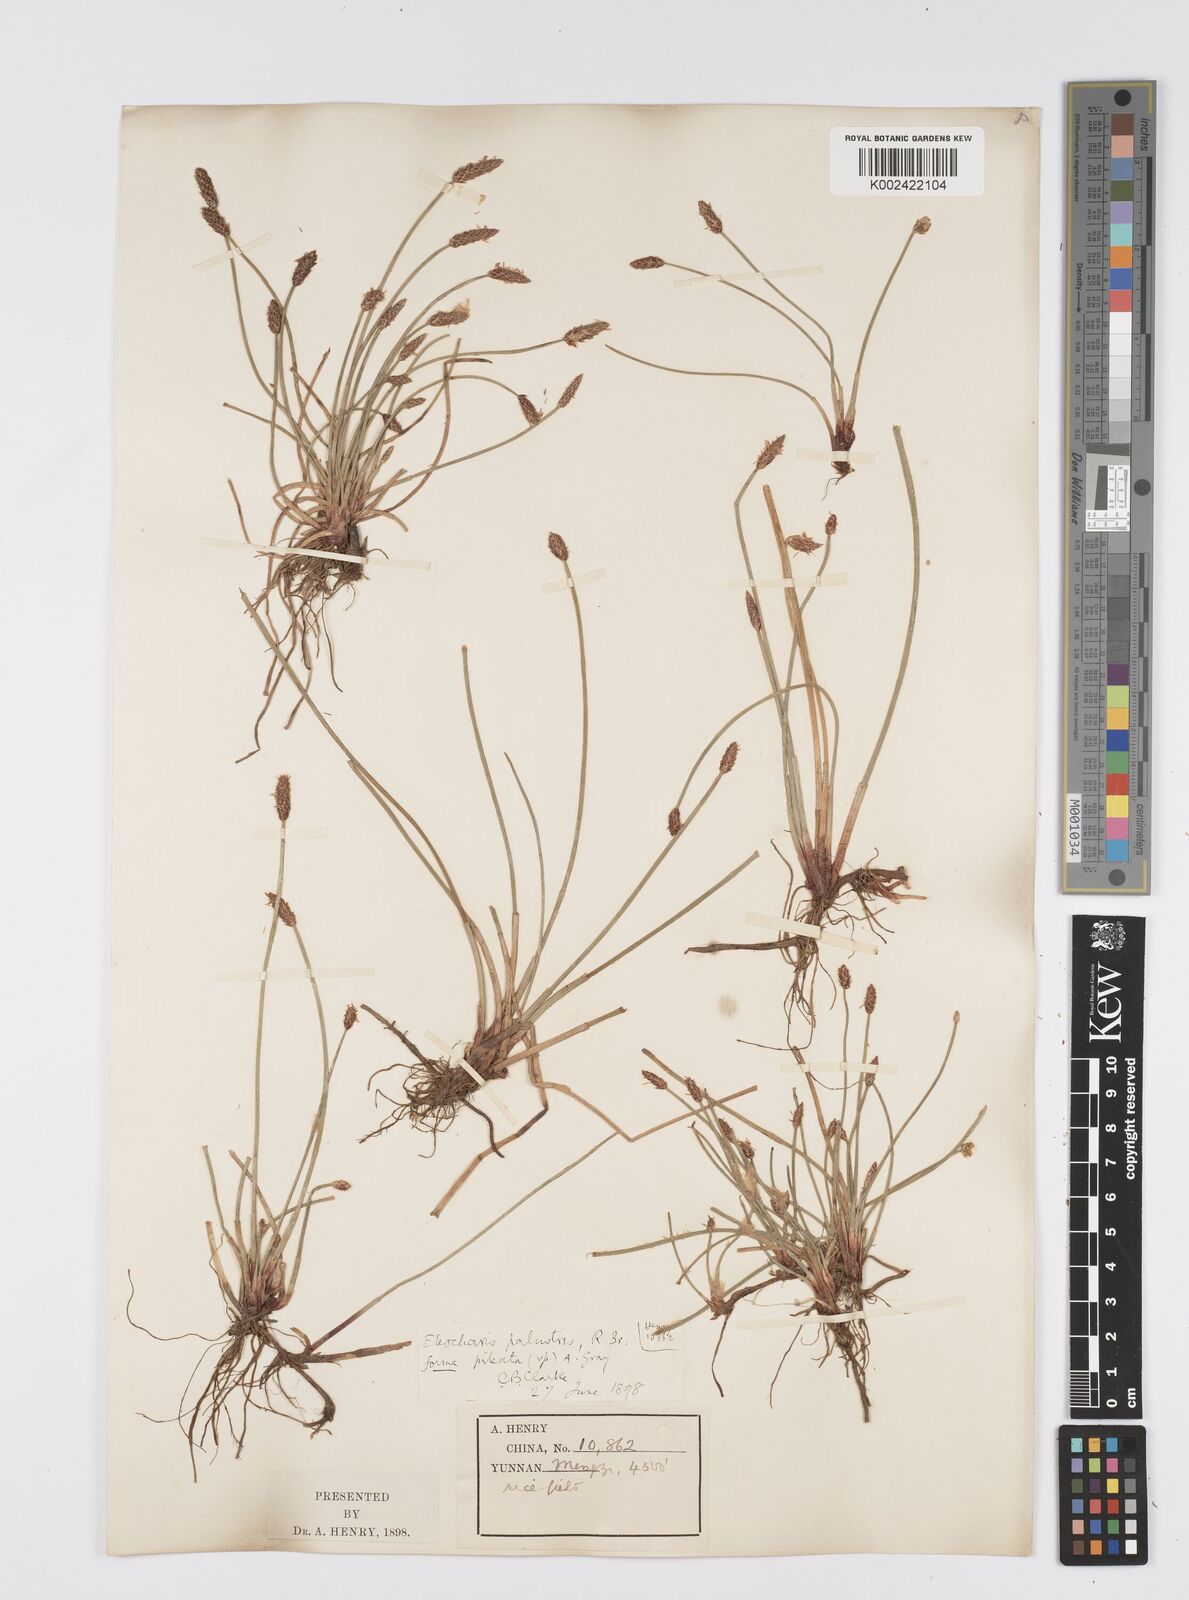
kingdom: Plantae
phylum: Tracheophyta
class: Liliopsida
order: Poales
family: Cyperaceae
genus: Eleocharis
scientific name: Eleocharis palustris
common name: Common spike-rush
